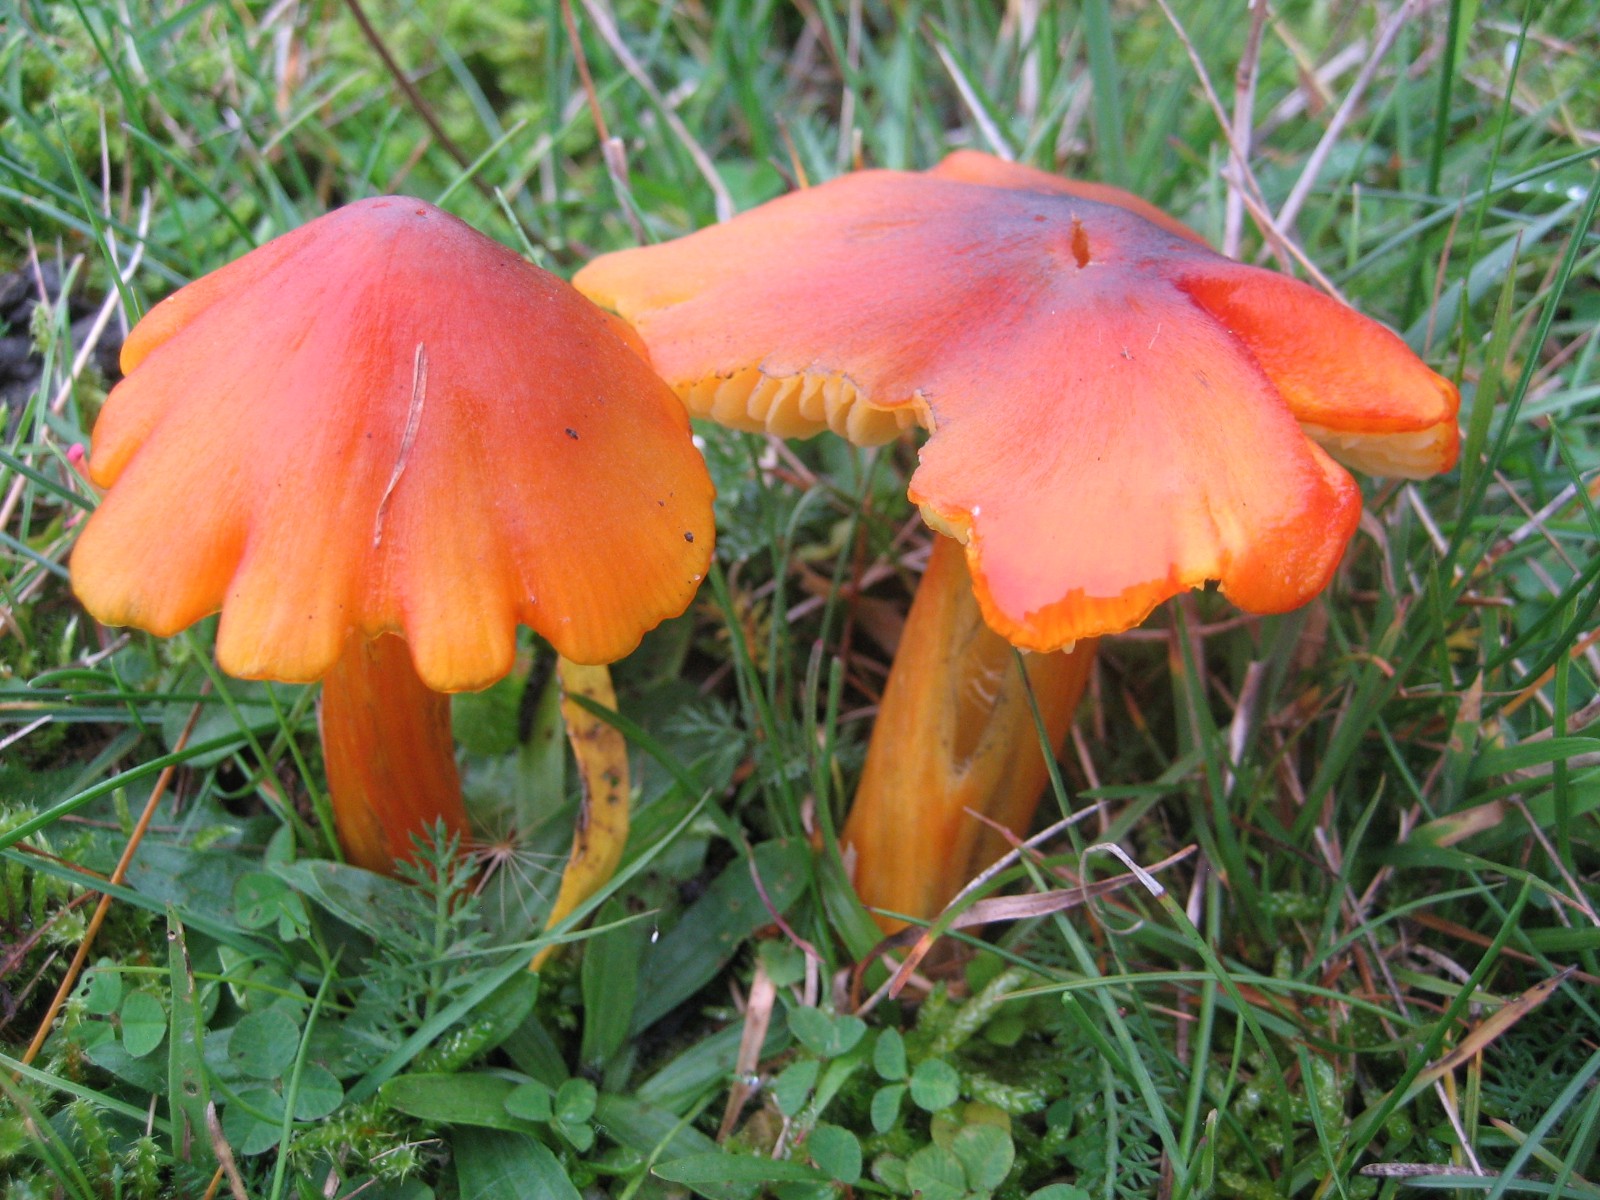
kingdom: Fungi
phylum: Basidiomycota
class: Agaricomycetes
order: Agaricales
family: Hygrophoraceae
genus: Hygrocybe
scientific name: Hygrocybe conica
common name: kegle-vokshat
